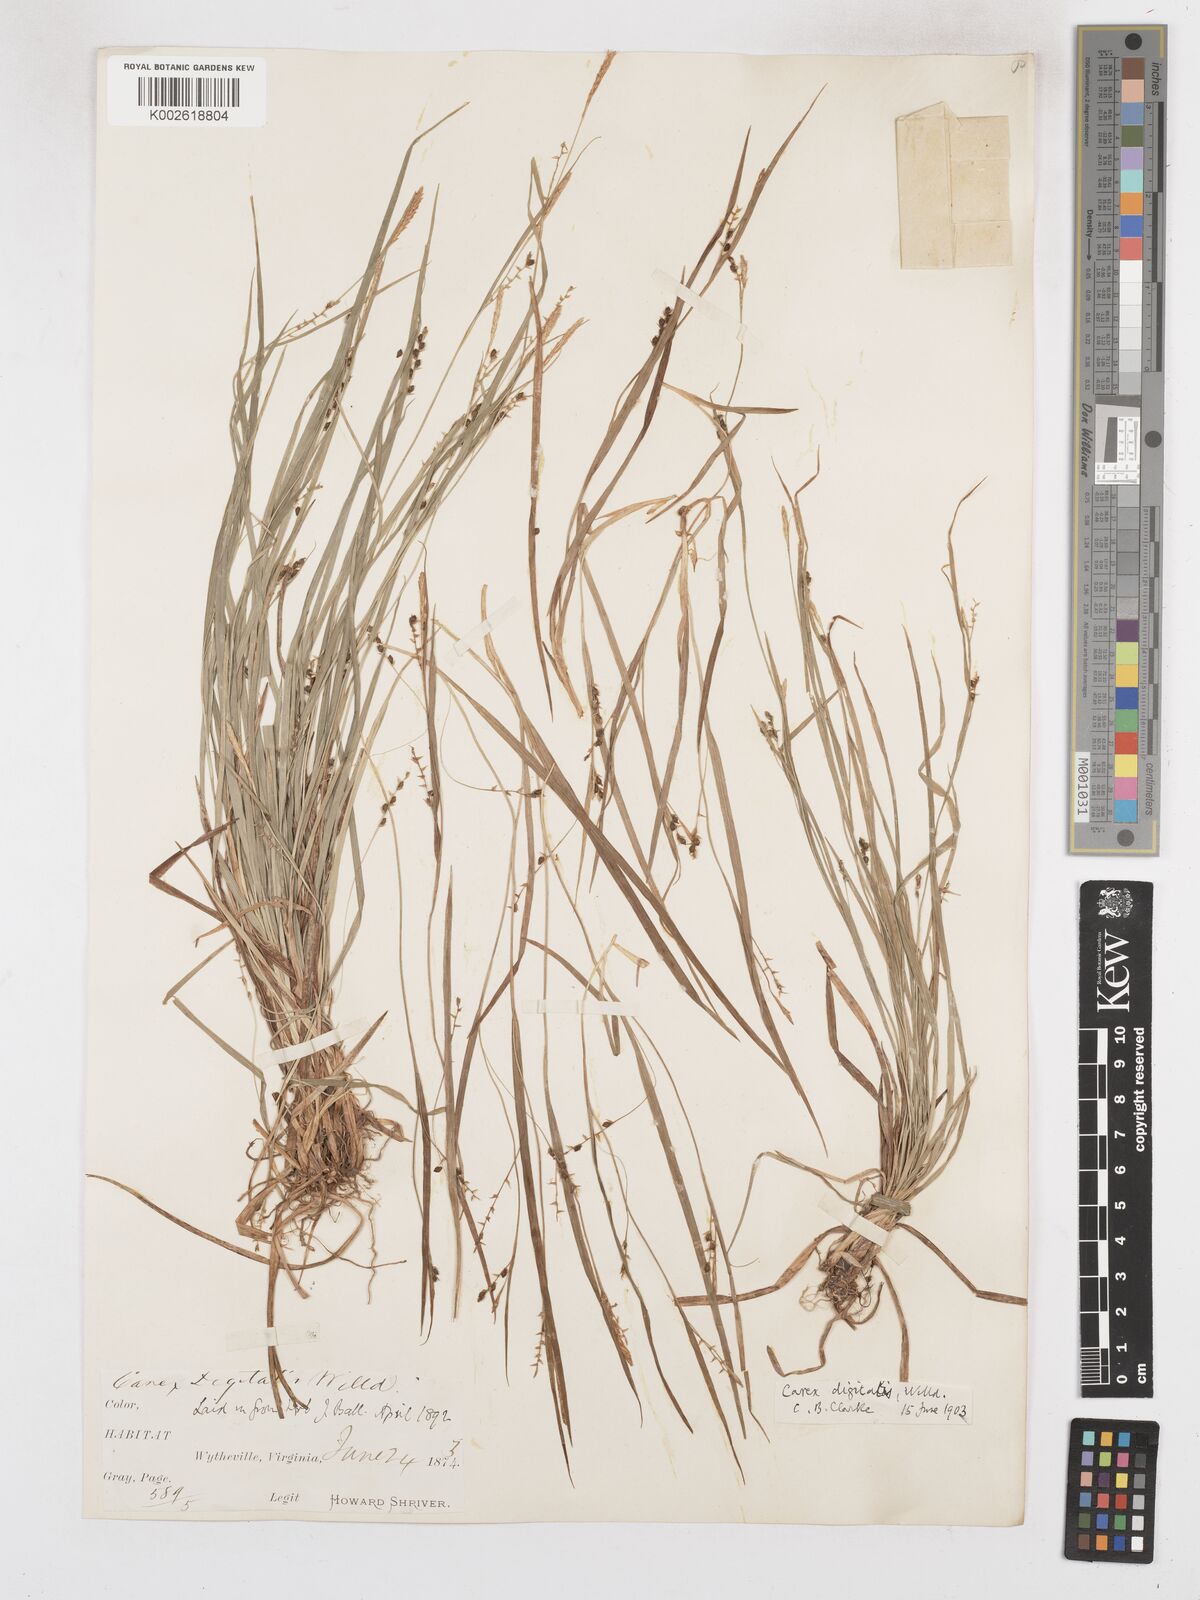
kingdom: Plantae
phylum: Tracheophyta
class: Liliopsida
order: Poales
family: Cyperaceae
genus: Carex
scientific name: Carex digitalis
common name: Slender wood sedge
